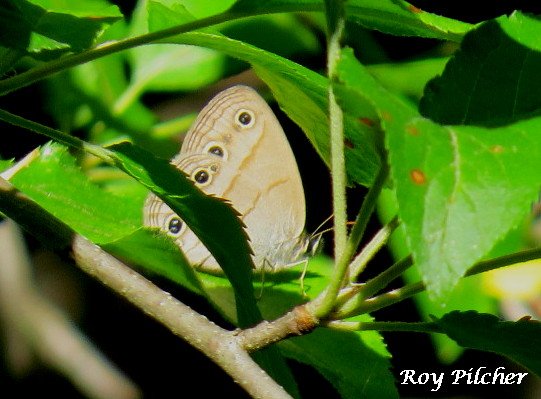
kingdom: Animalia
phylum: Arthropoda
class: Insecta
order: Lepidoptera
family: Nymphalidae
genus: Euptychia
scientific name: Euptychia cymela
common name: Little Wood Satyr
